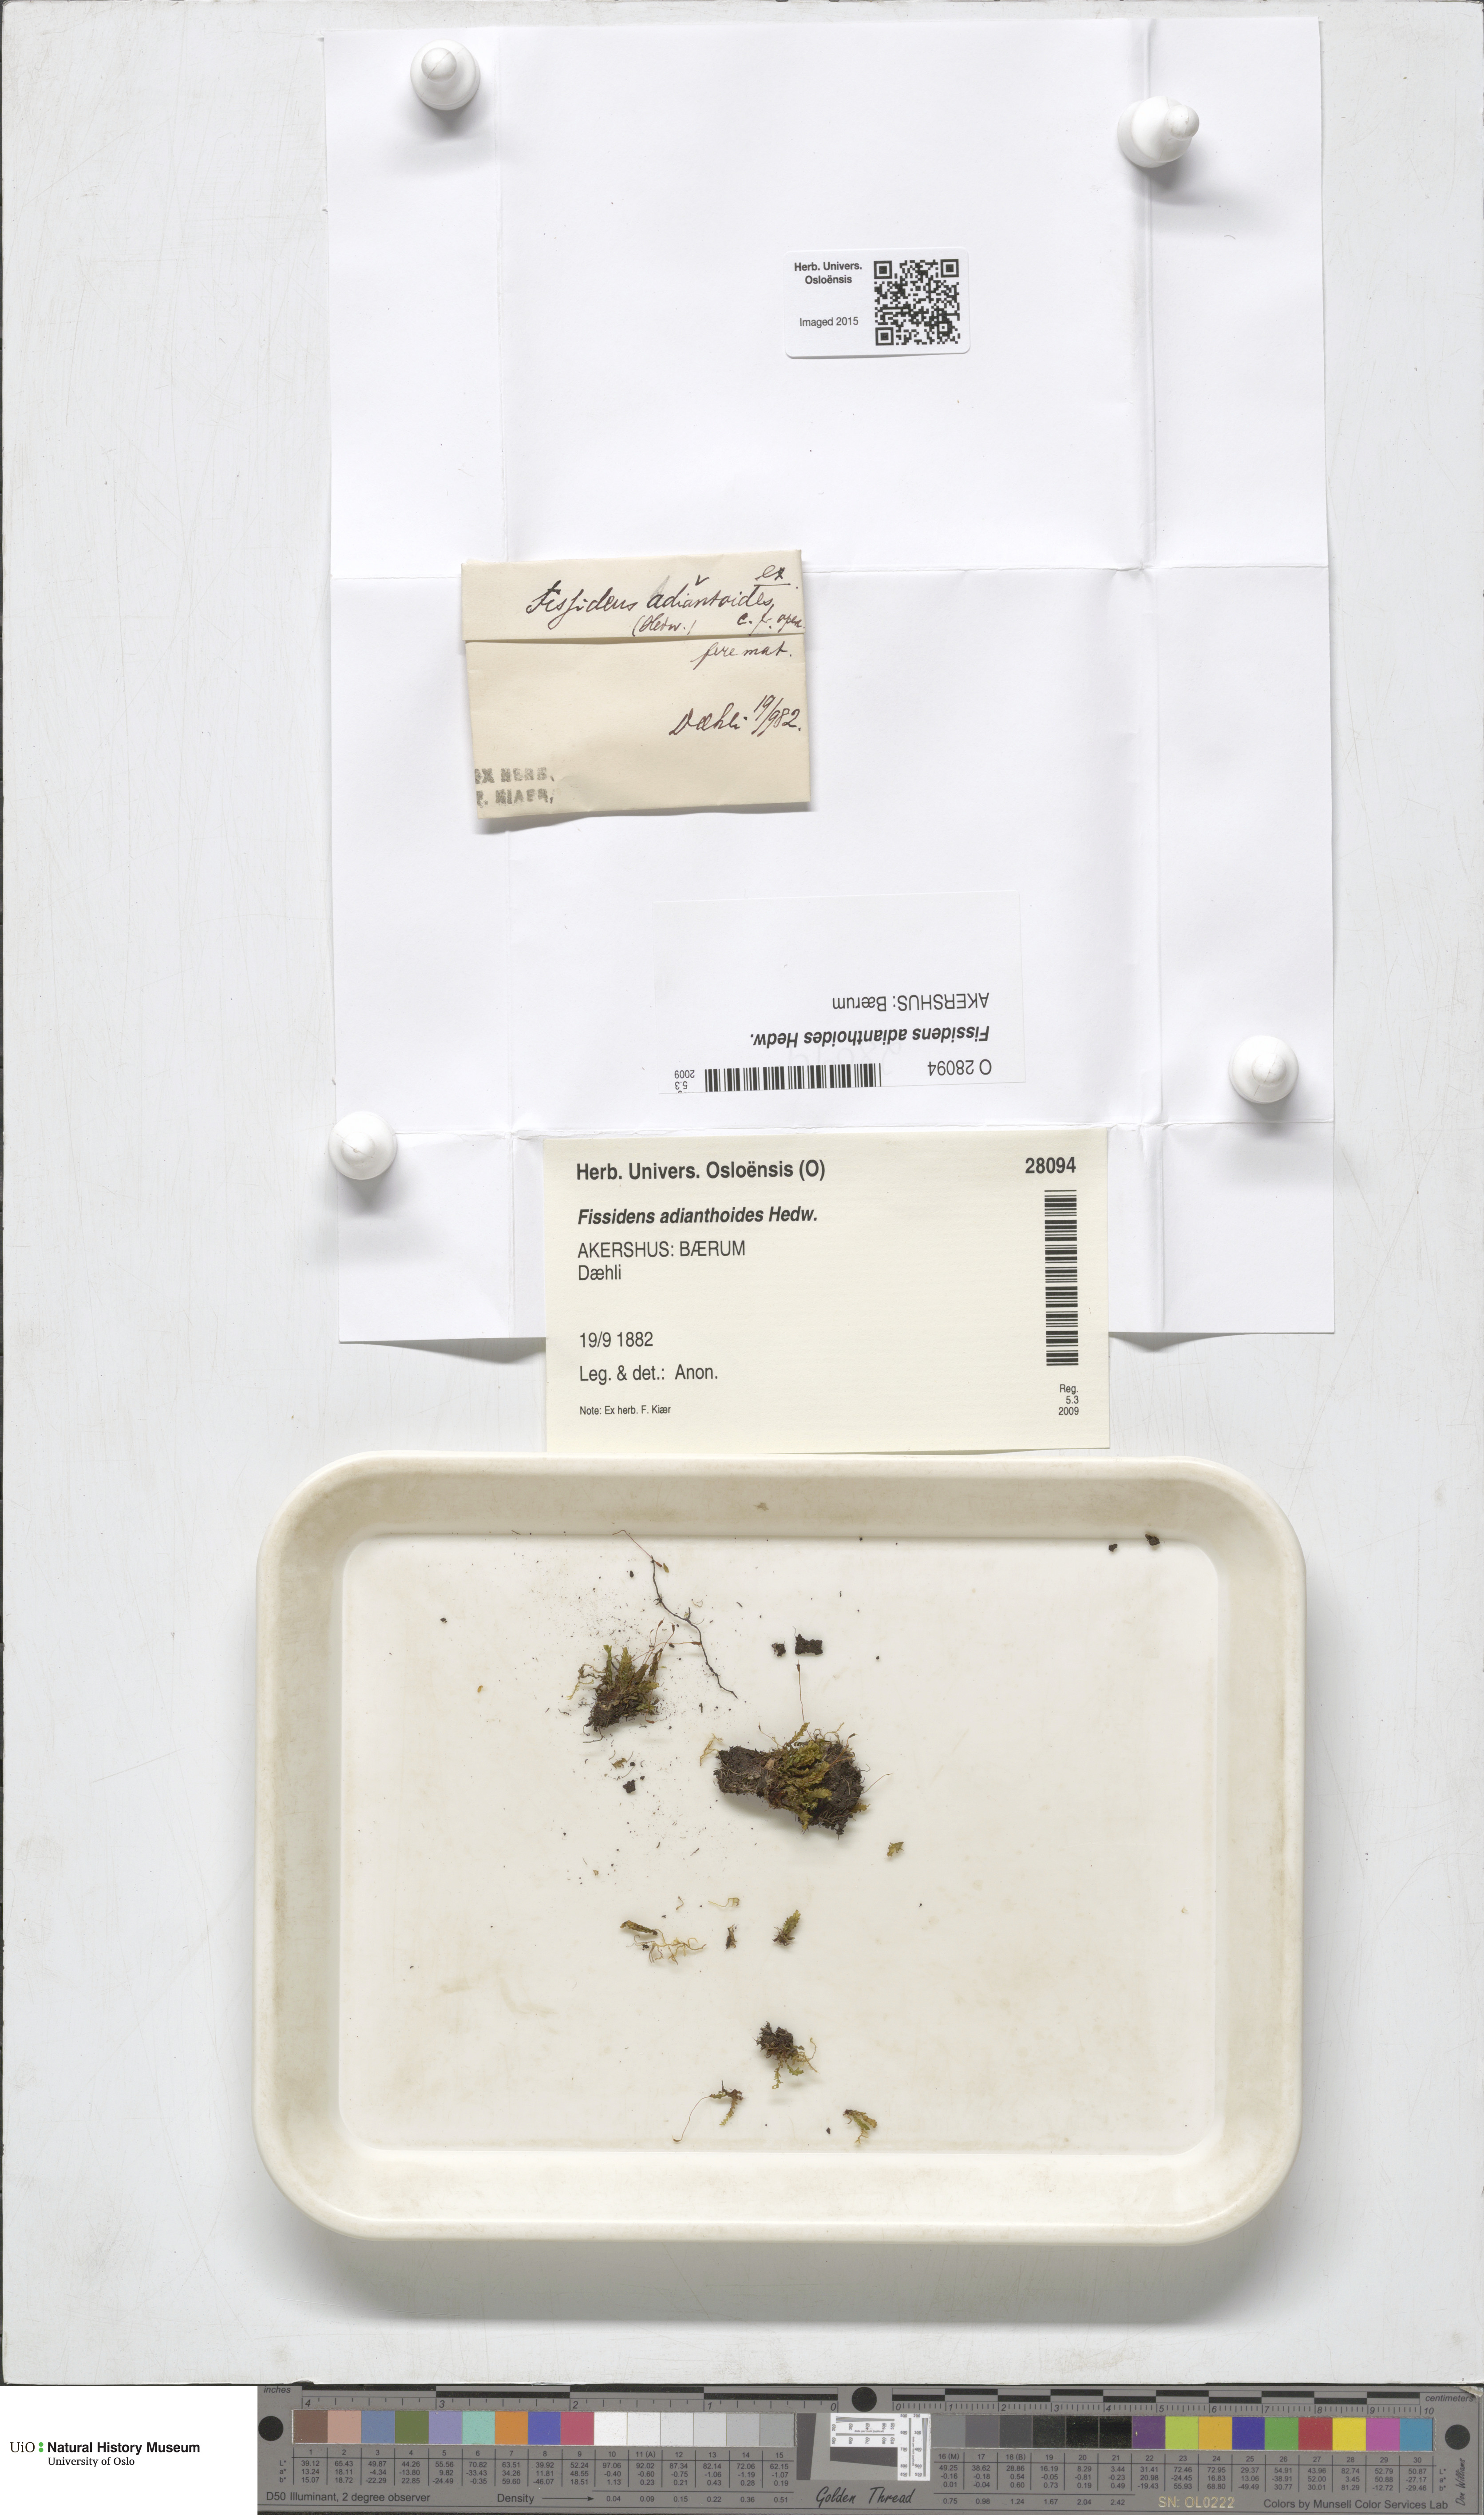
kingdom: Plantae
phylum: Bryophyta
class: Bryopsida
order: Dicranales
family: Fissidentaceae
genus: Fissidens
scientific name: Fissidens adianthoides
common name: Maidenhair pocket moss
